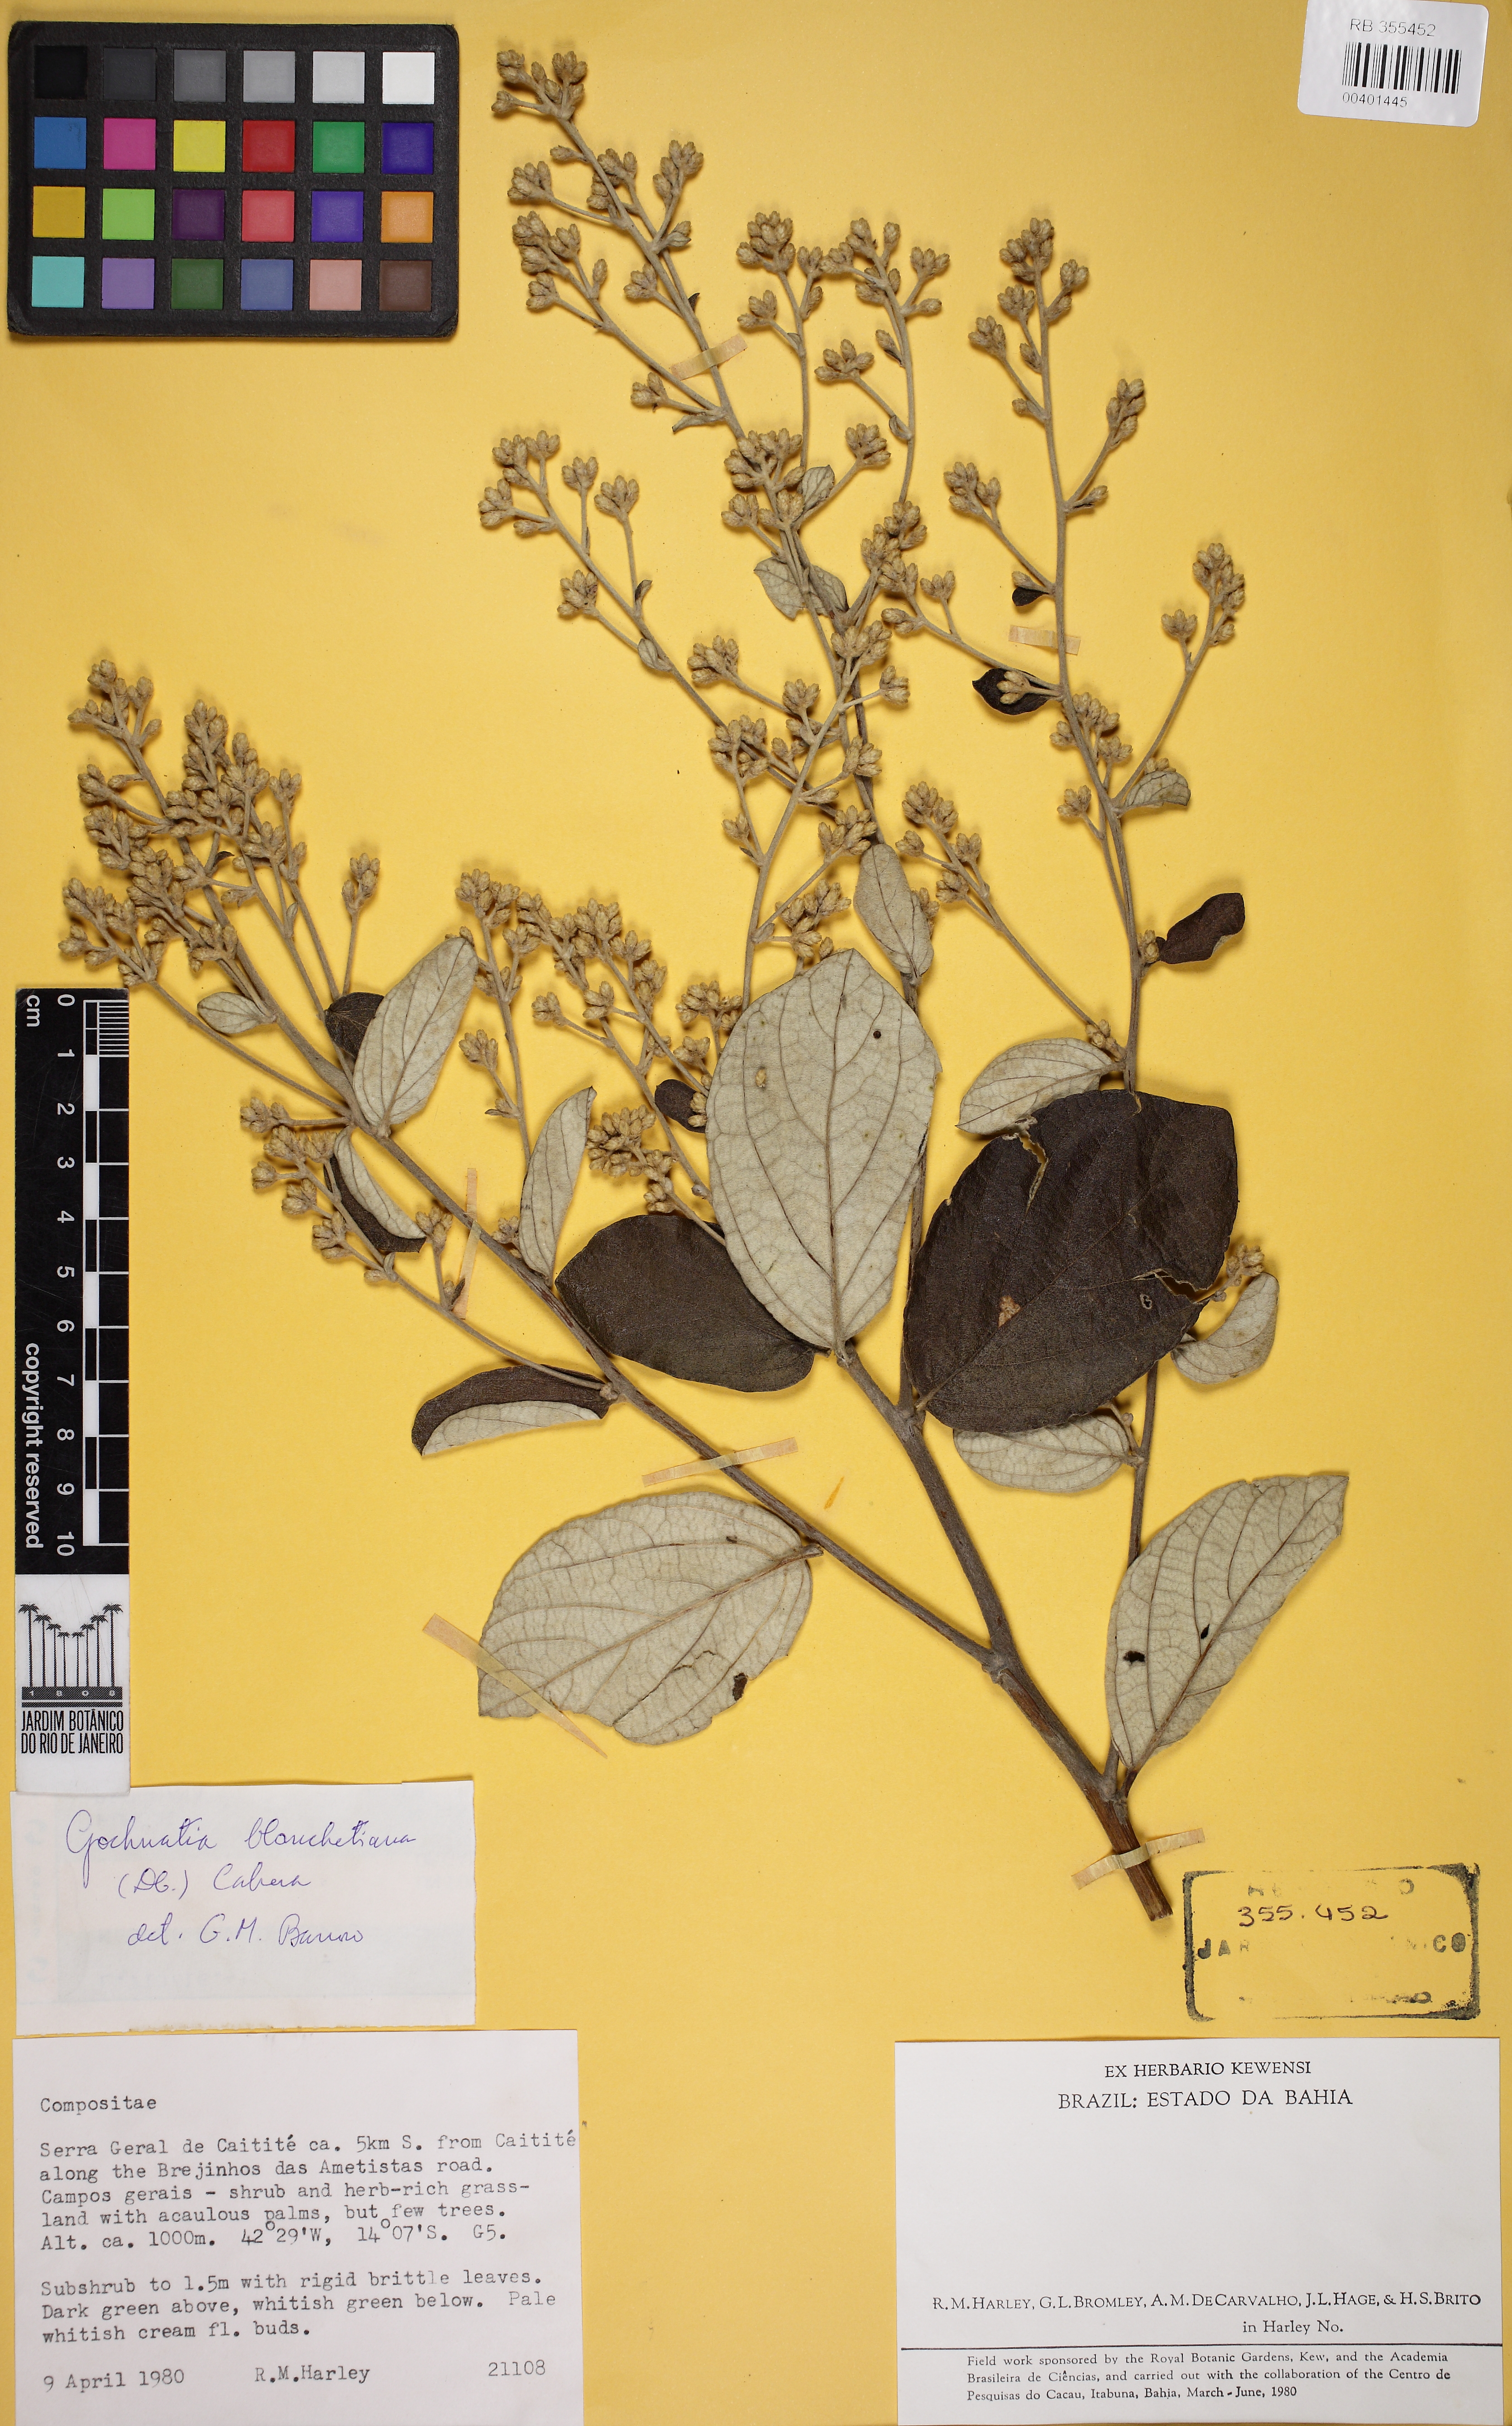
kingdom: Plantae
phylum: Tracheophyta
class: Magnoliopsida
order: Asterales
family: Asteraceae
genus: Moquiniastrum
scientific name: Moquiniastrum blanchetianum
